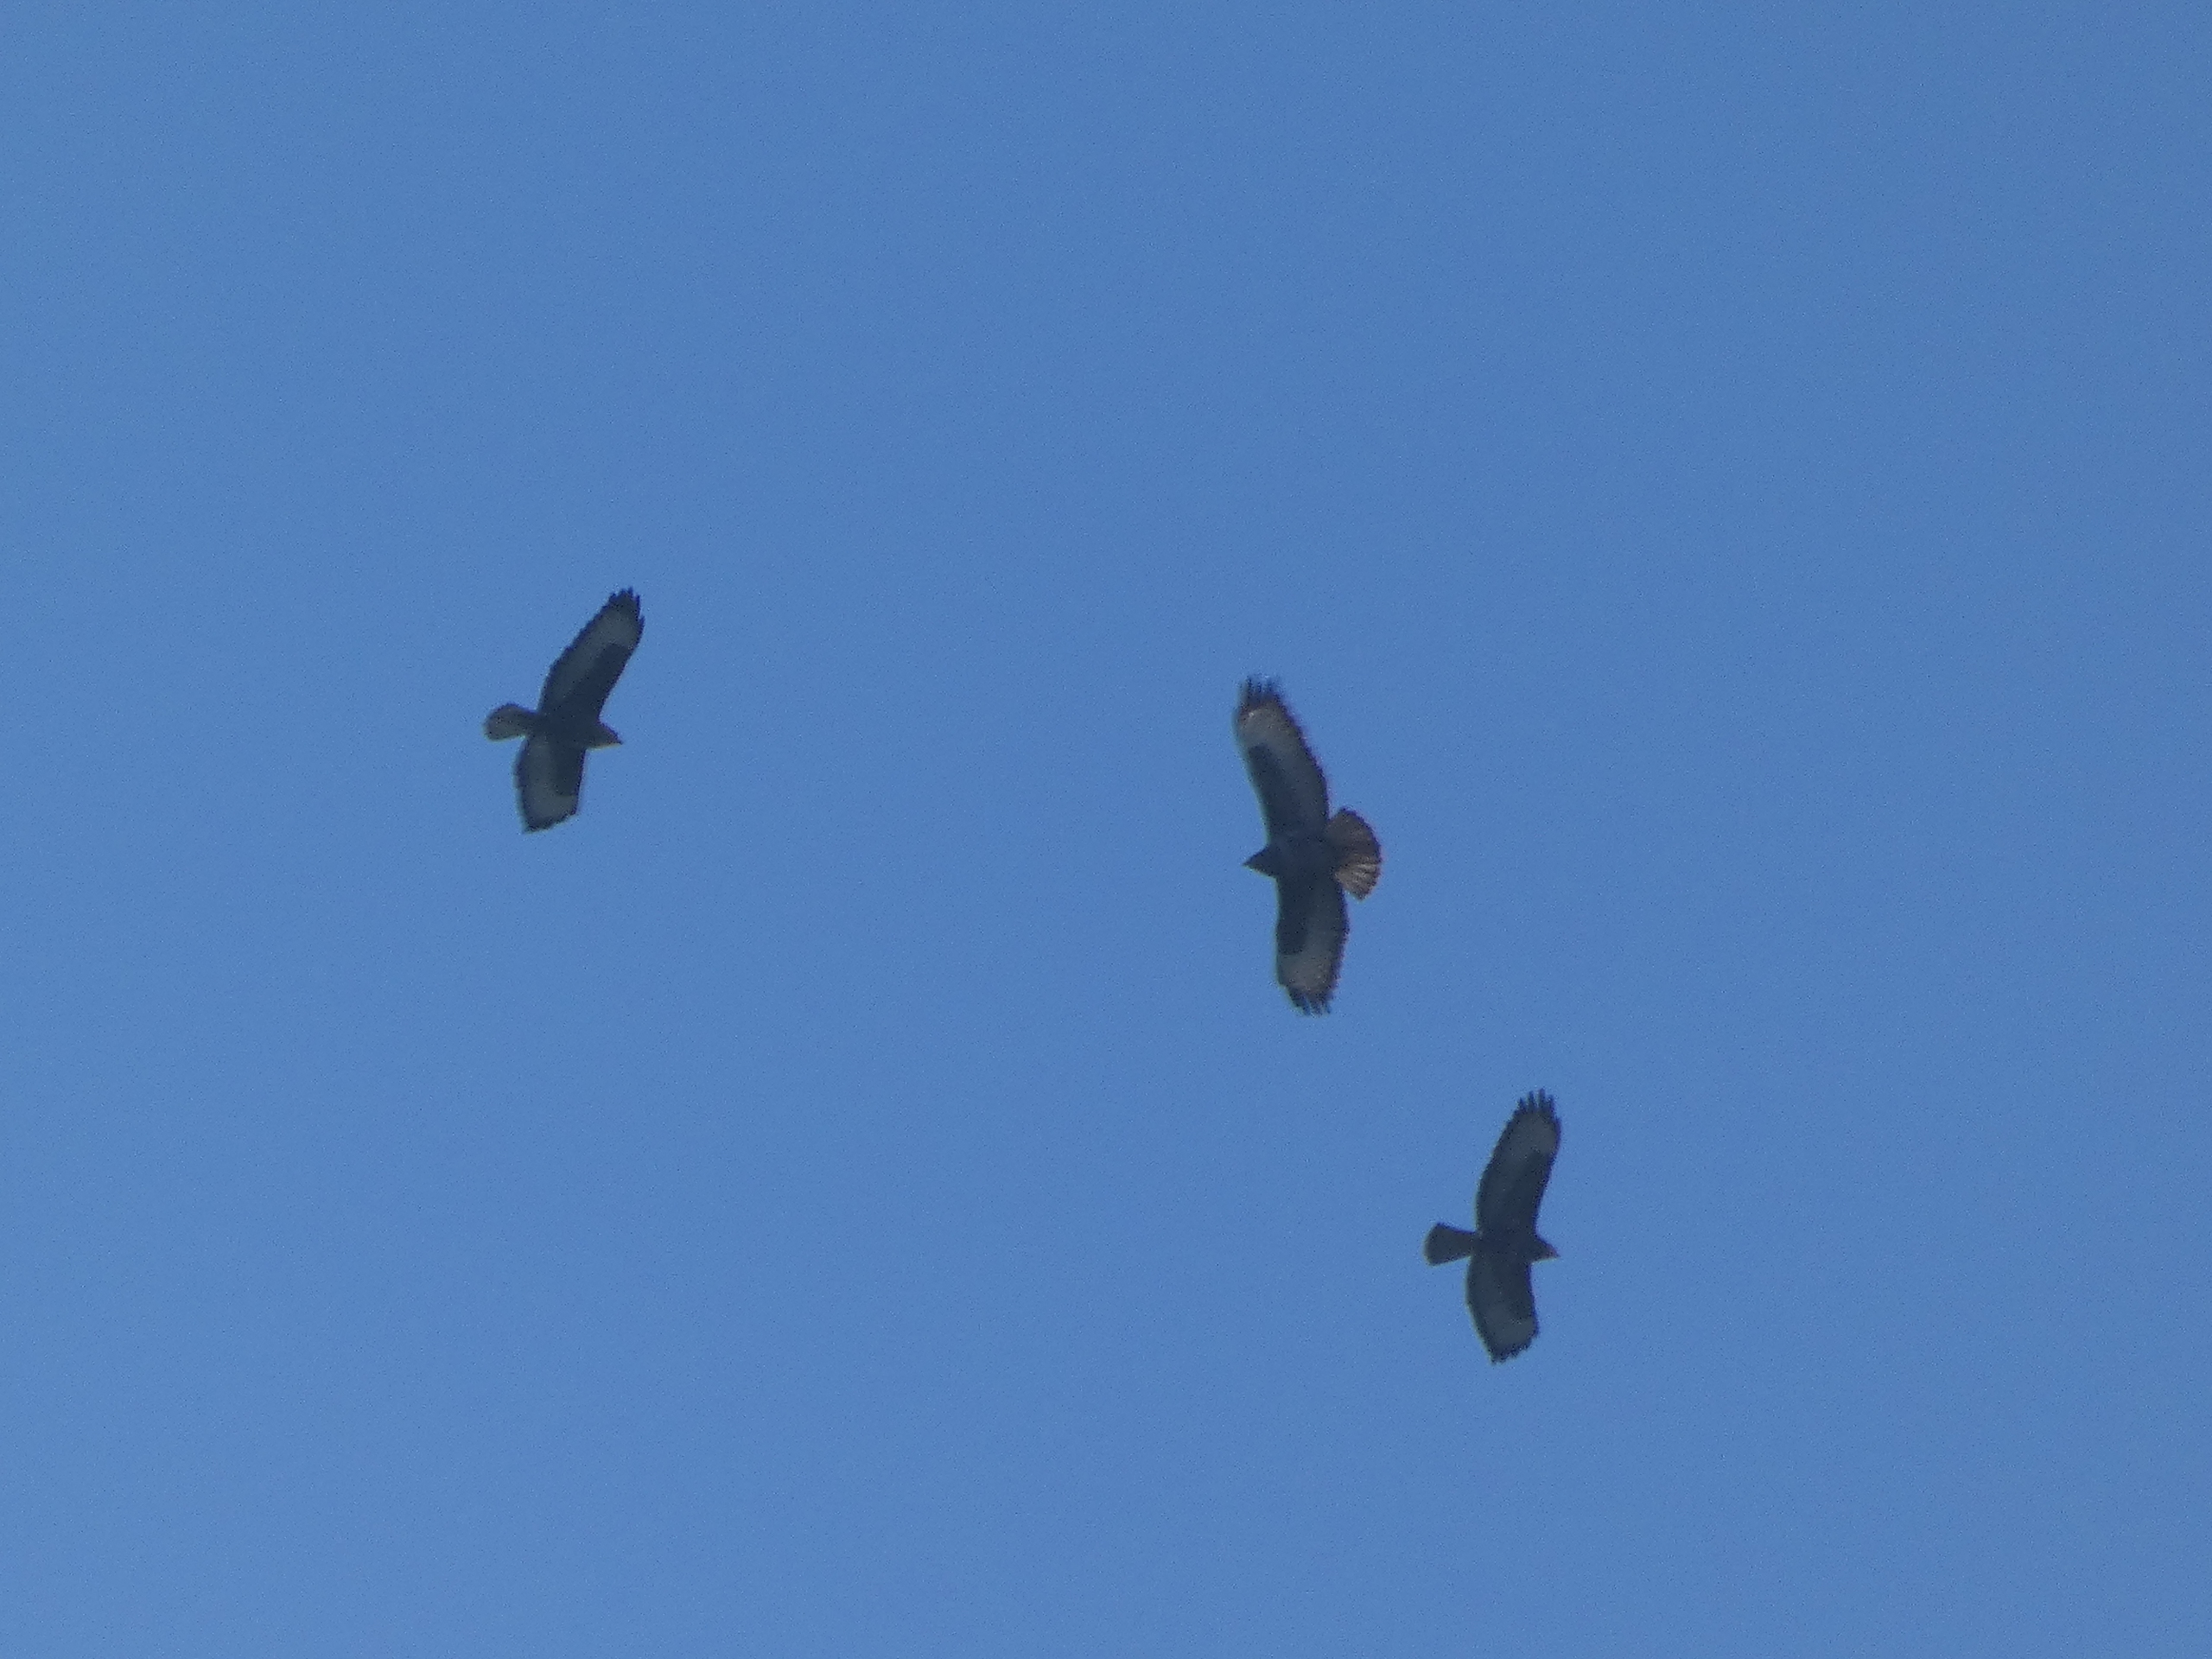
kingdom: Animalia
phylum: Chordata
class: Aves
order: Accipitriformes
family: Accipitridae
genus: Buteo
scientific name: Buteo buteo
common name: Musvåge
